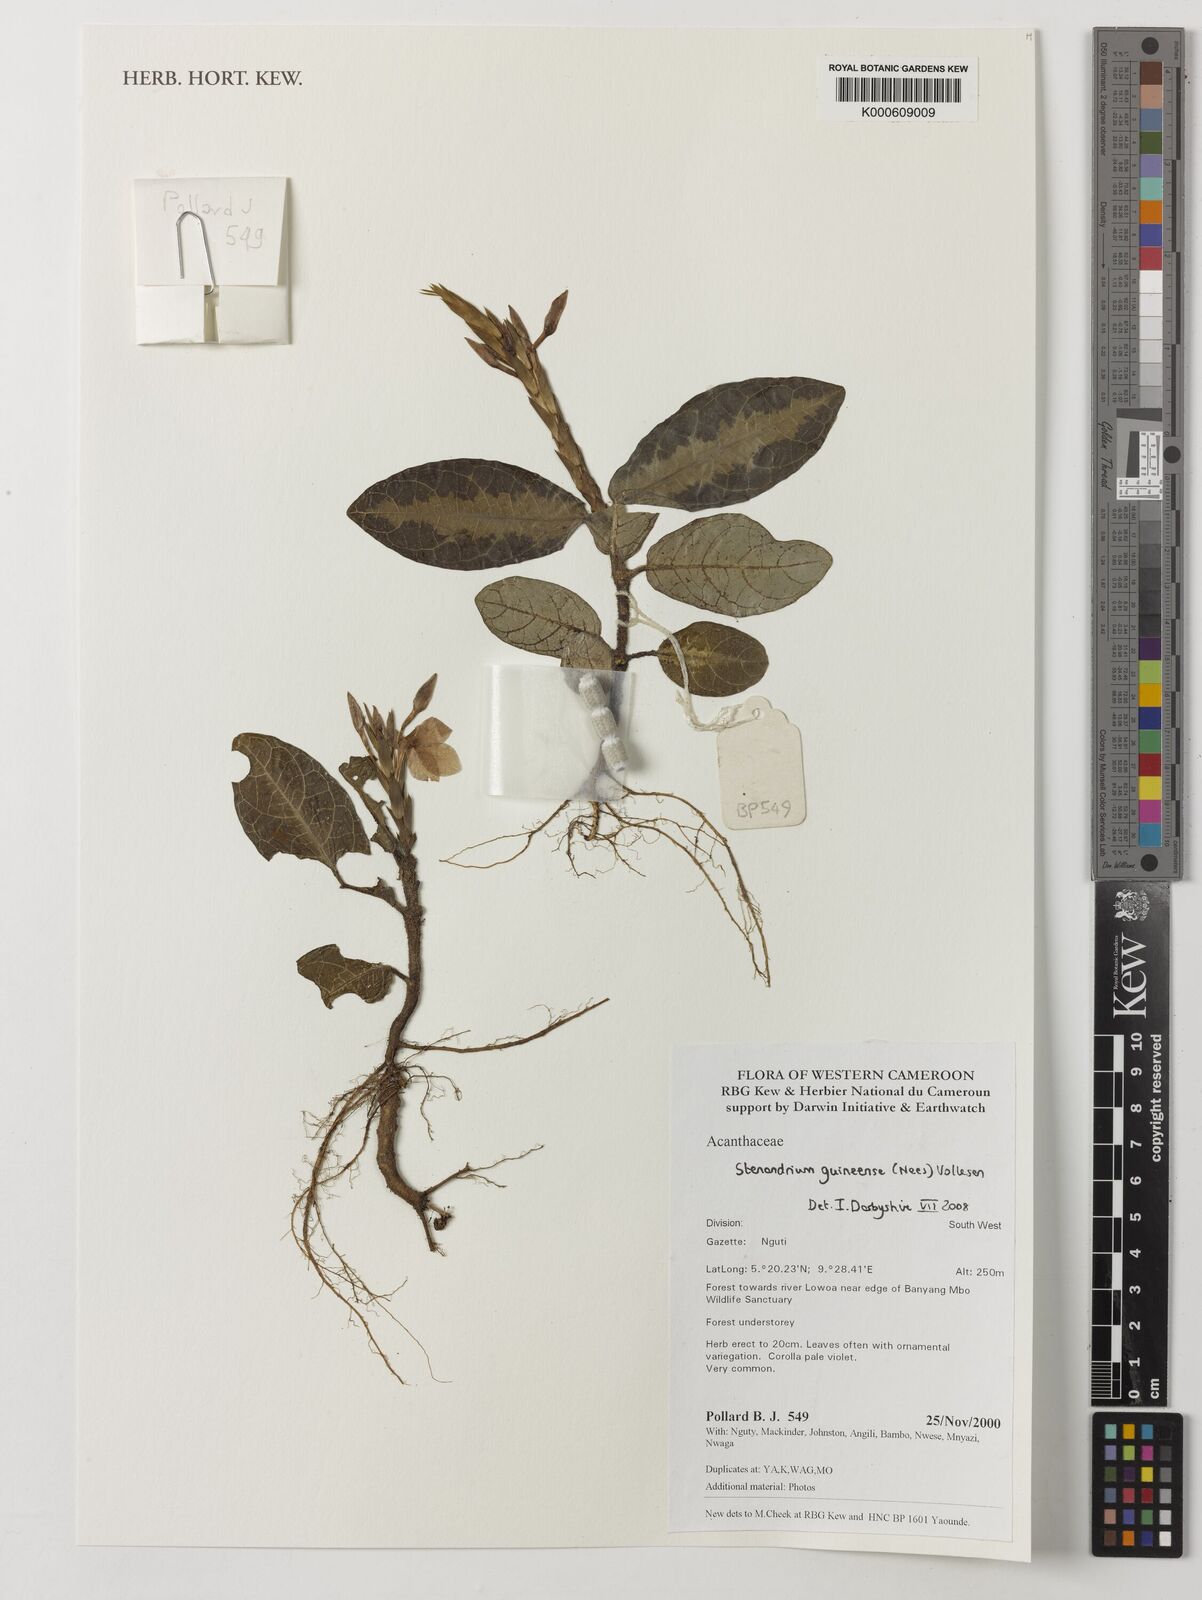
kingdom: Plantae
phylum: Tracheophyta
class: Magnoliopsida
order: Lamiales
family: Acanthaceae
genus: Stenandriopsis
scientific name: Stenandriopsis guineensis
